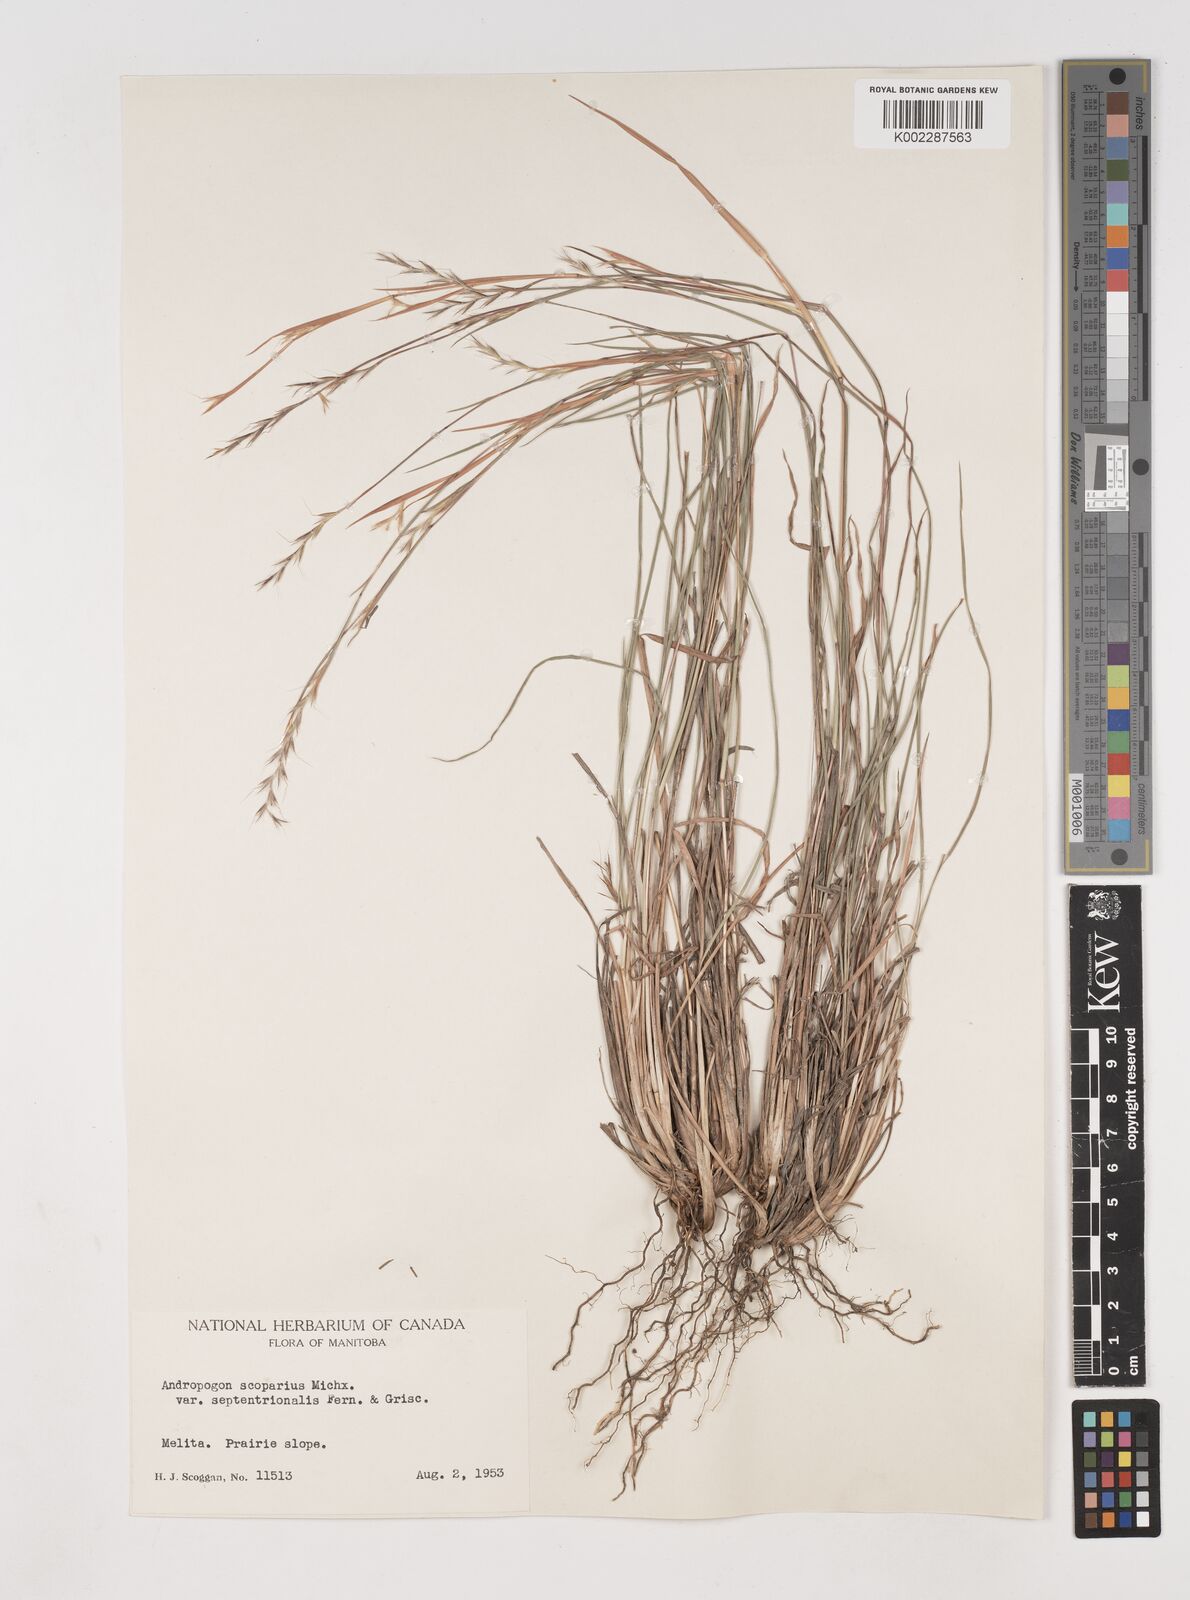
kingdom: Plantae
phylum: Tracheophyta
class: Liliopsida
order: Poales
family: Poaceae
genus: Schizachyrium
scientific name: Schizachyrium scoparium
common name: Little bluestem
